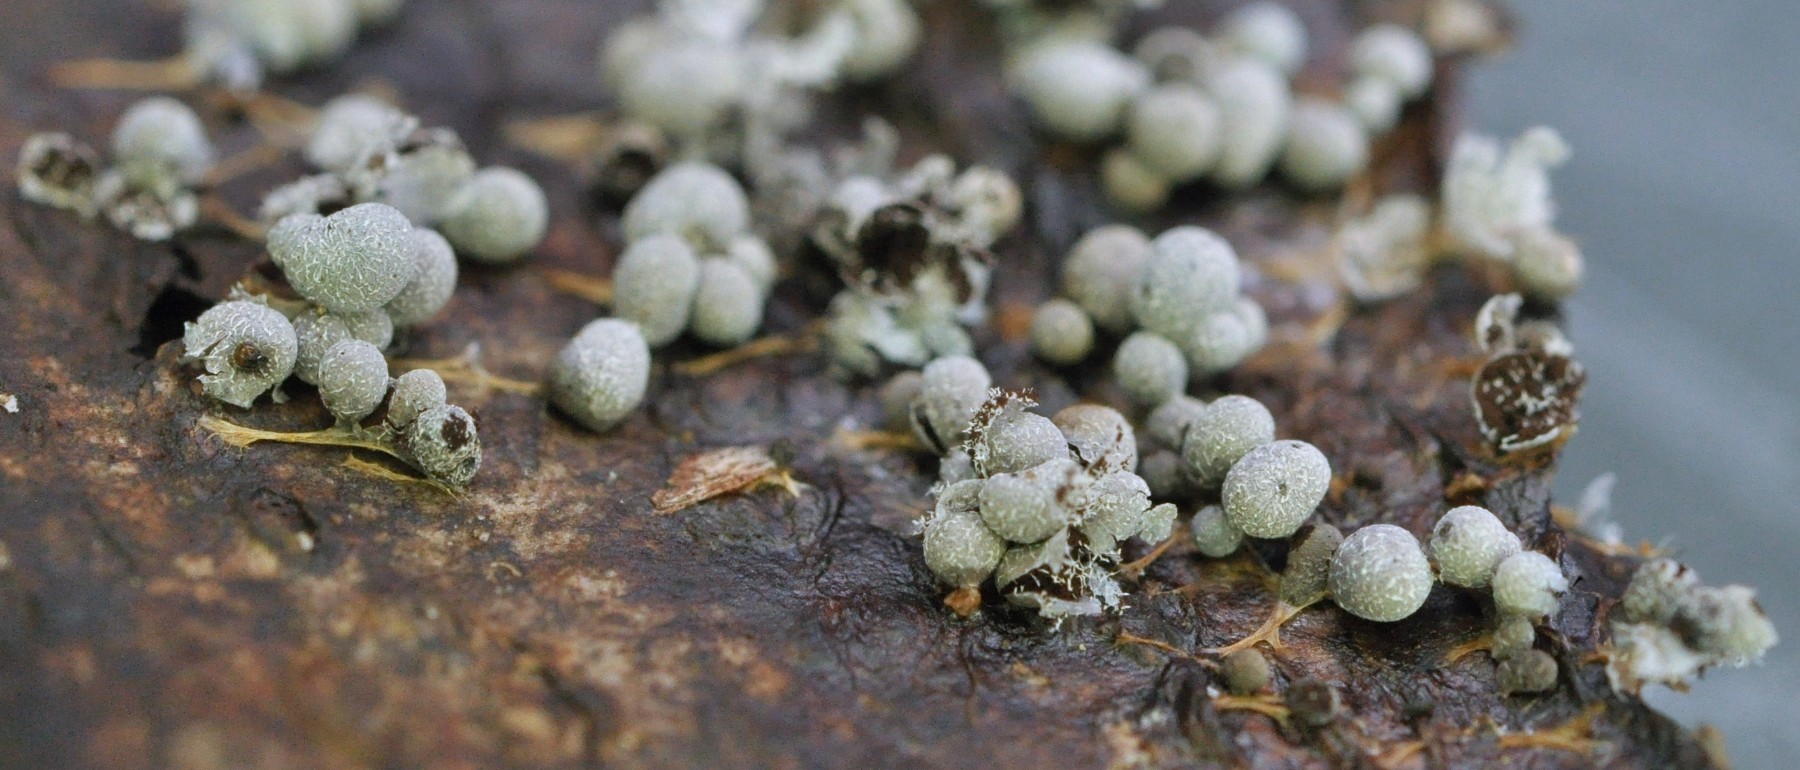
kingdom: Protozoa
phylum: Mycetozoa
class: Myxomycetes
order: Physarales
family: Physaraceae
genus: Badhamia
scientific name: Badhamia utricularis
